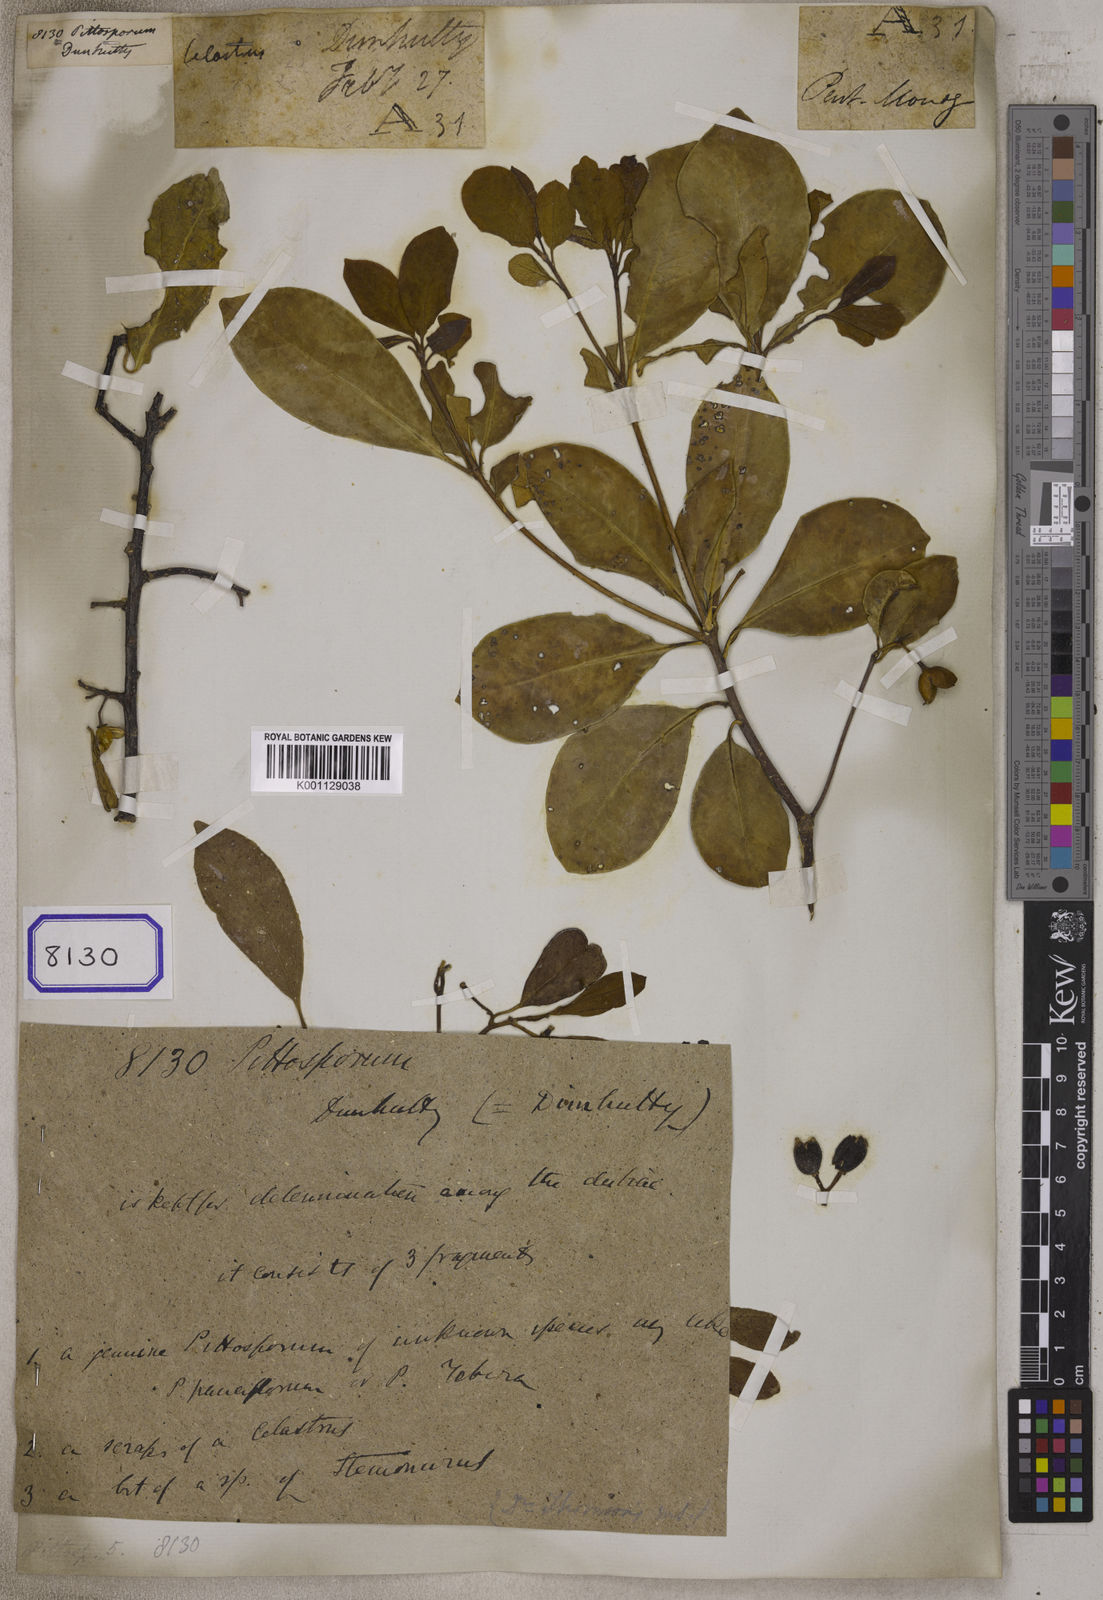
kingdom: Plantae
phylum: Tracheophyta
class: Magnoliopsida
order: Apiales
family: Pittosporaceae
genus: Pittosporum
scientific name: Pittosporum
